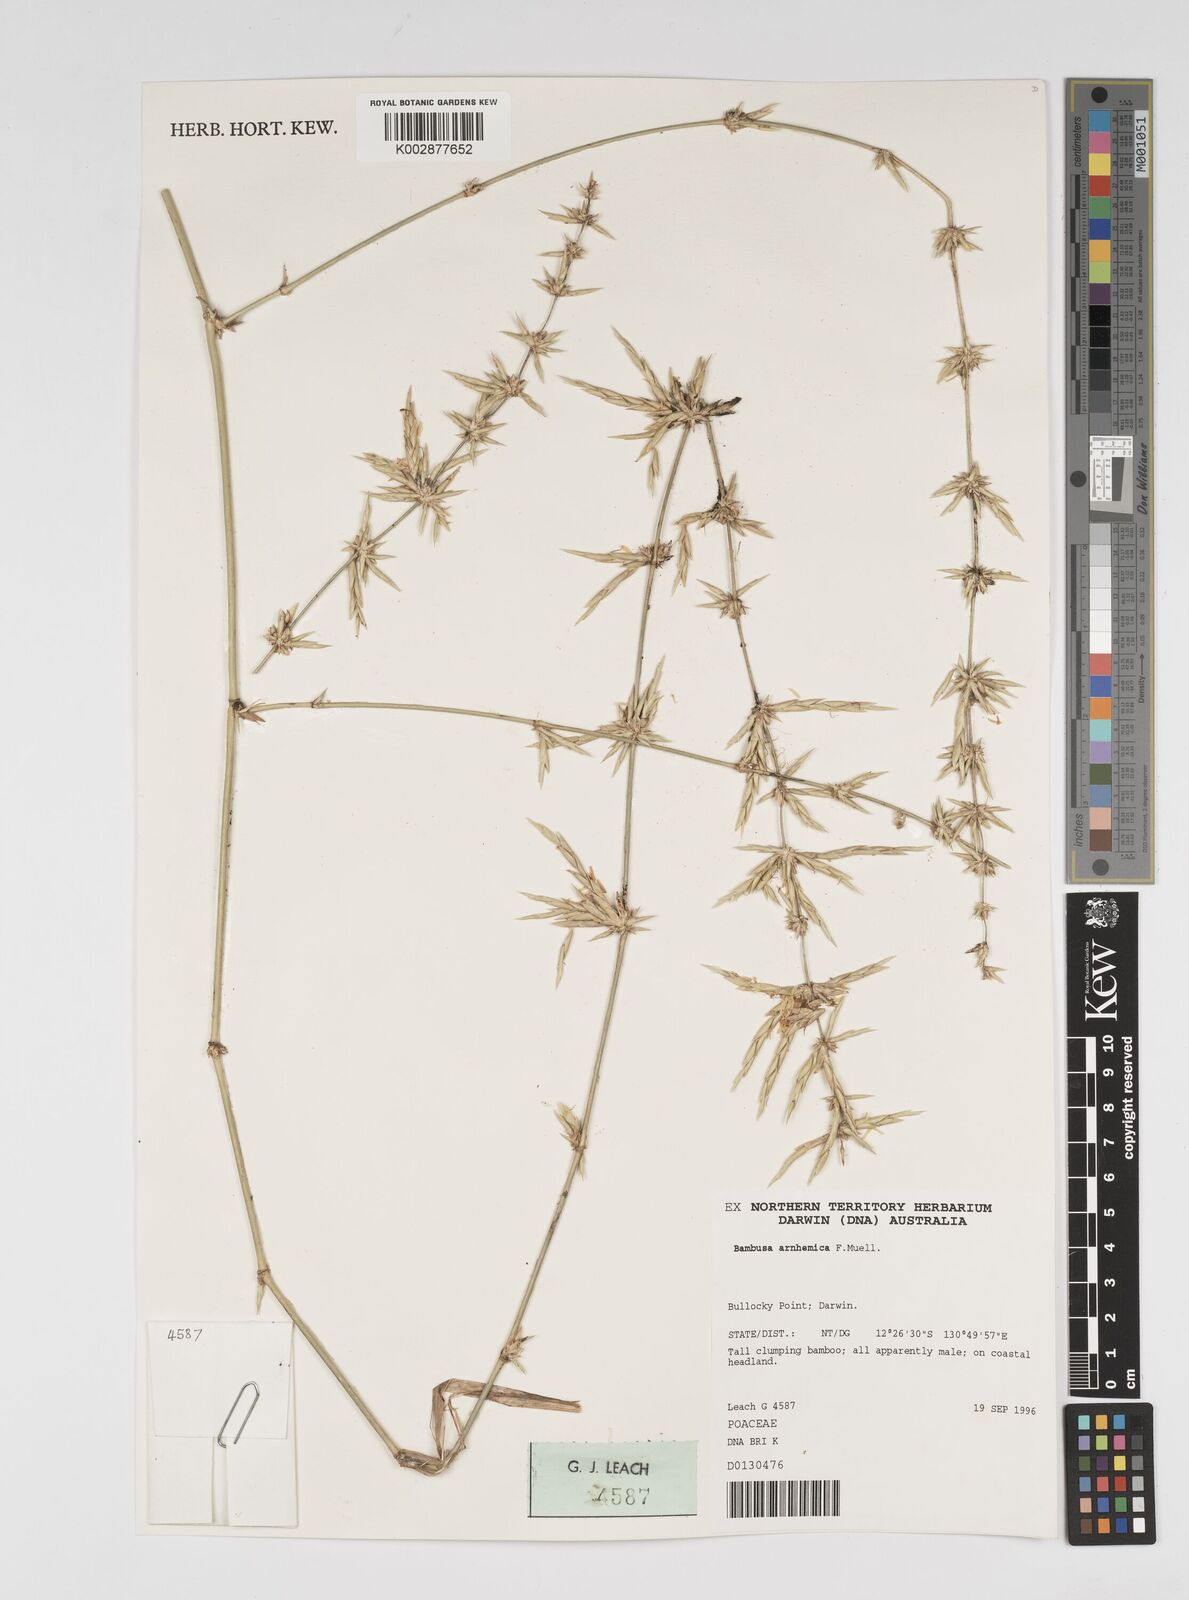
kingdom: Plantae
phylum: Tracheophyta
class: Liliopsida
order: Poales
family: Poaceae
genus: Bambusa
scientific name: Bambusa arnhemica
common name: Top-end bamboo
